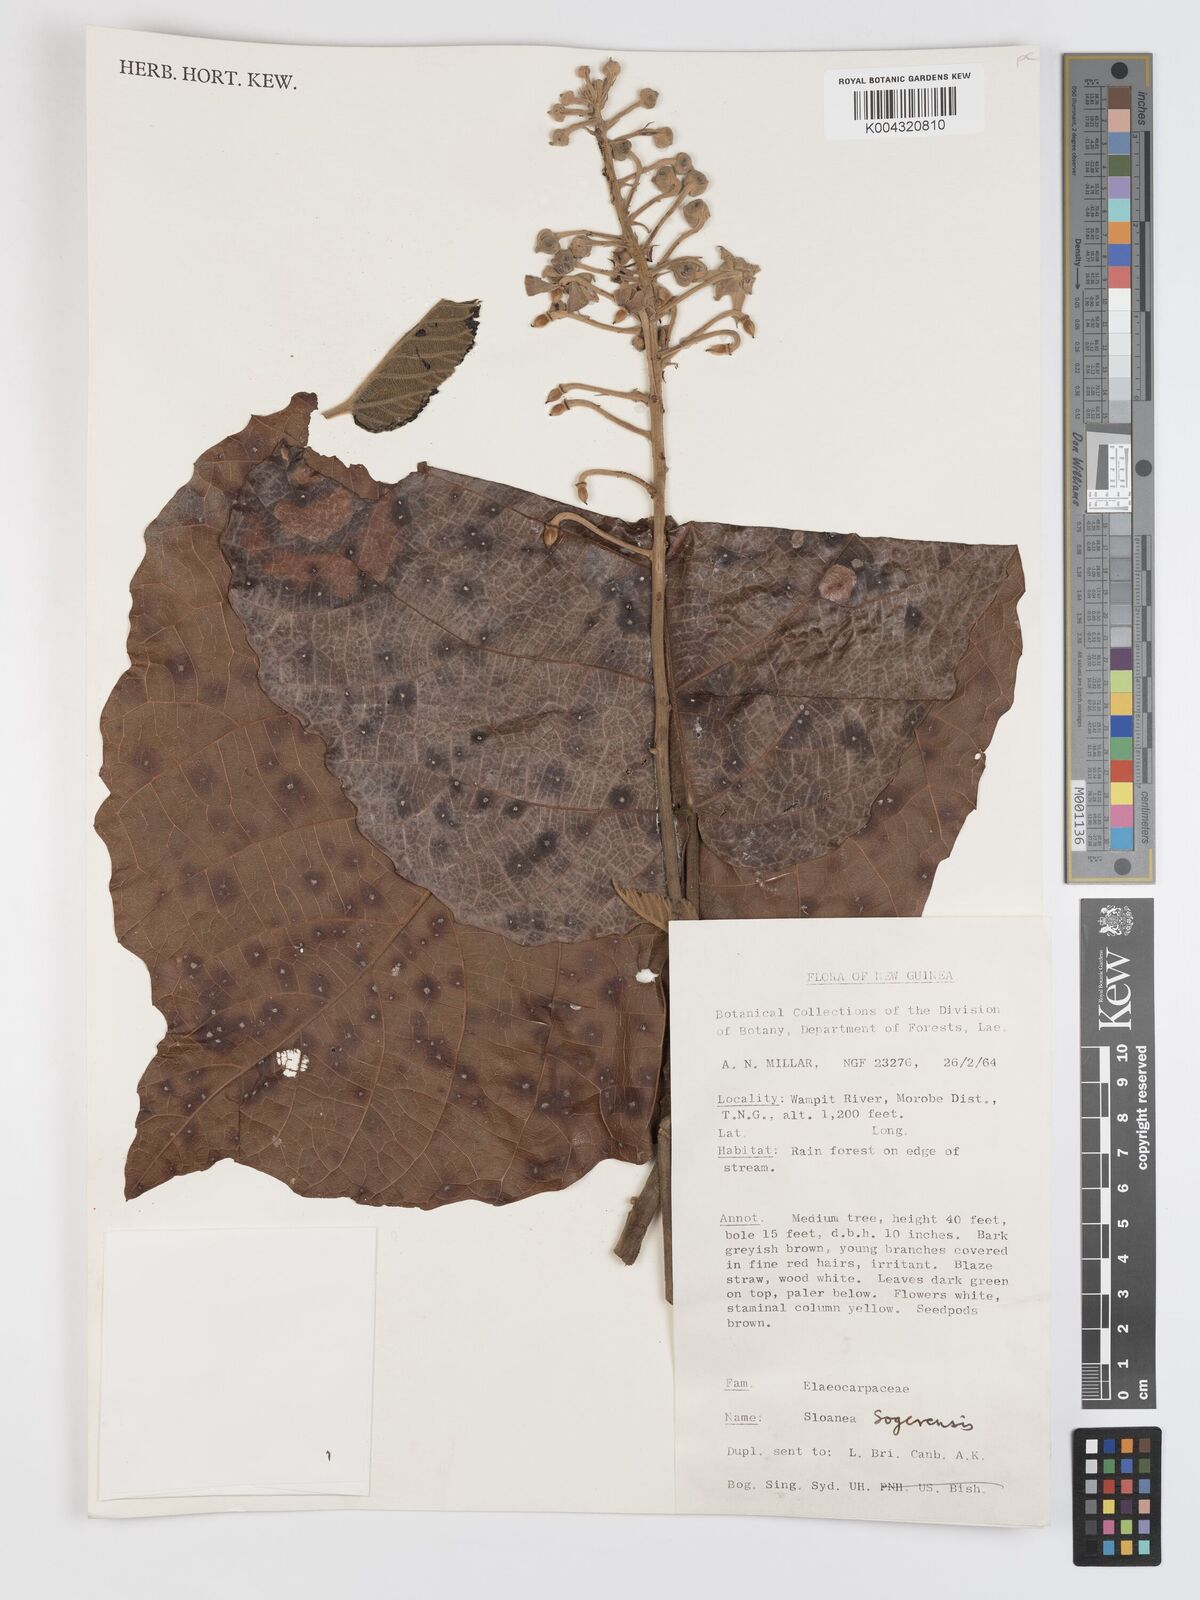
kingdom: Plantae
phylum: Tracheophyta
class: Magnoliopsida
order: Oxalidales
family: Elaeocarpaceae
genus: Sloanea
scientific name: Sloanea sogerensis
